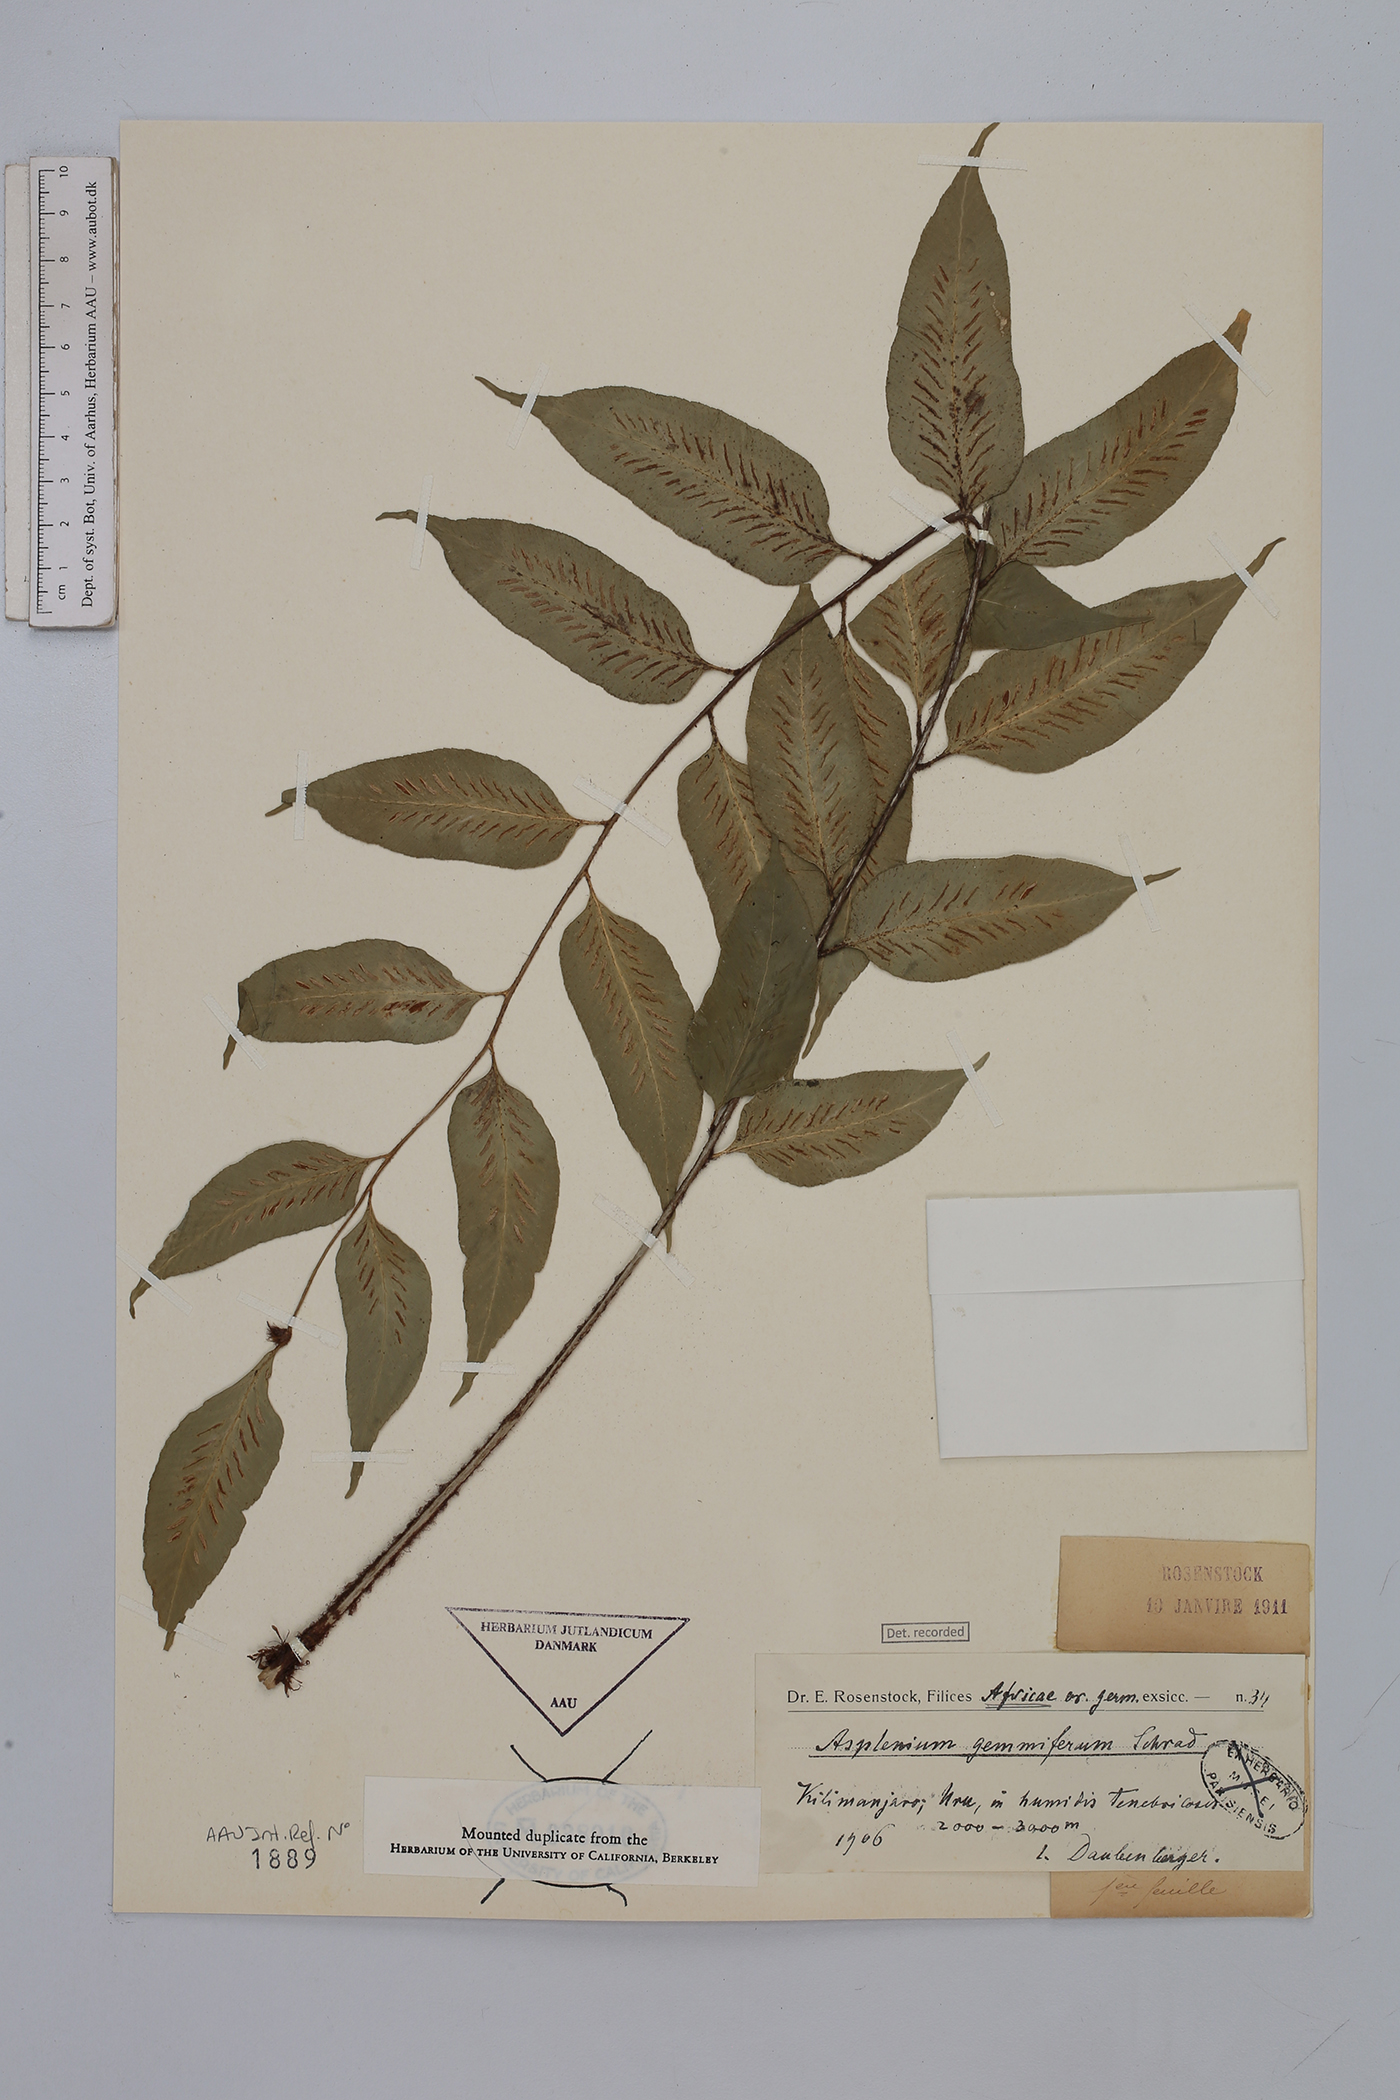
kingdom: Plantae
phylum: Tracheophyta
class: Polypodiopsida
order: Polypodiales
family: Aspleniaceae
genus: Asplenium
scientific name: Asplenium gemmiferum
